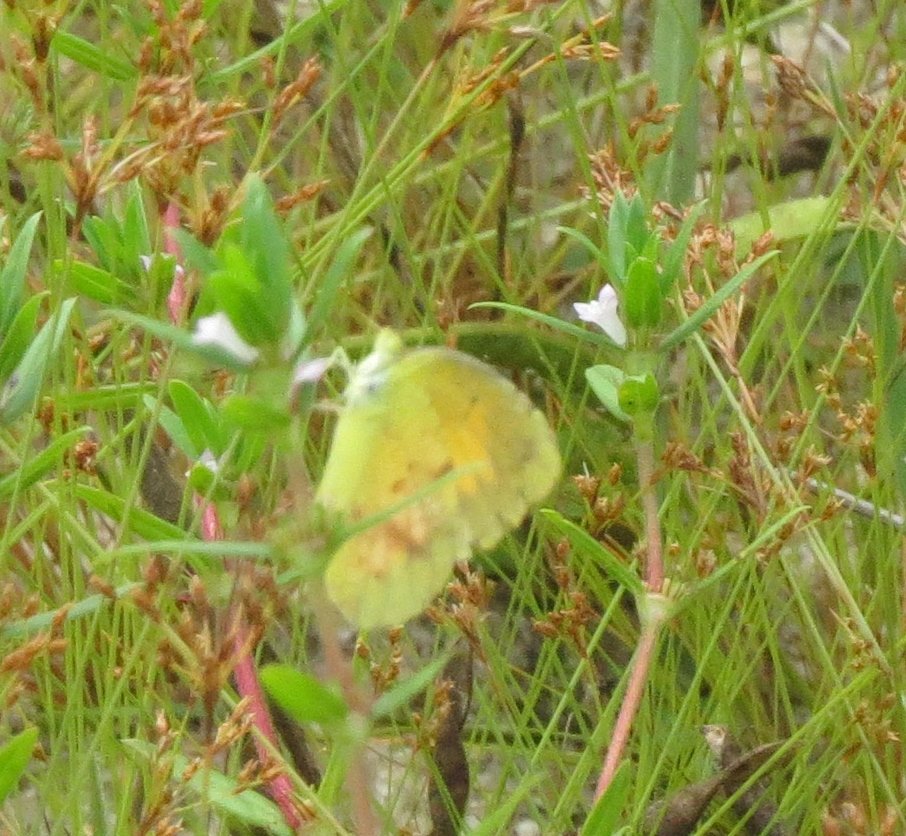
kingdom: Animalia
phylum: Arthropoda
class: Insecta
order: Lepidoptera
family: Pieridae
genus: Abaeis
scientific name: Abaeis nicippe
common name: Sleepy Orange
